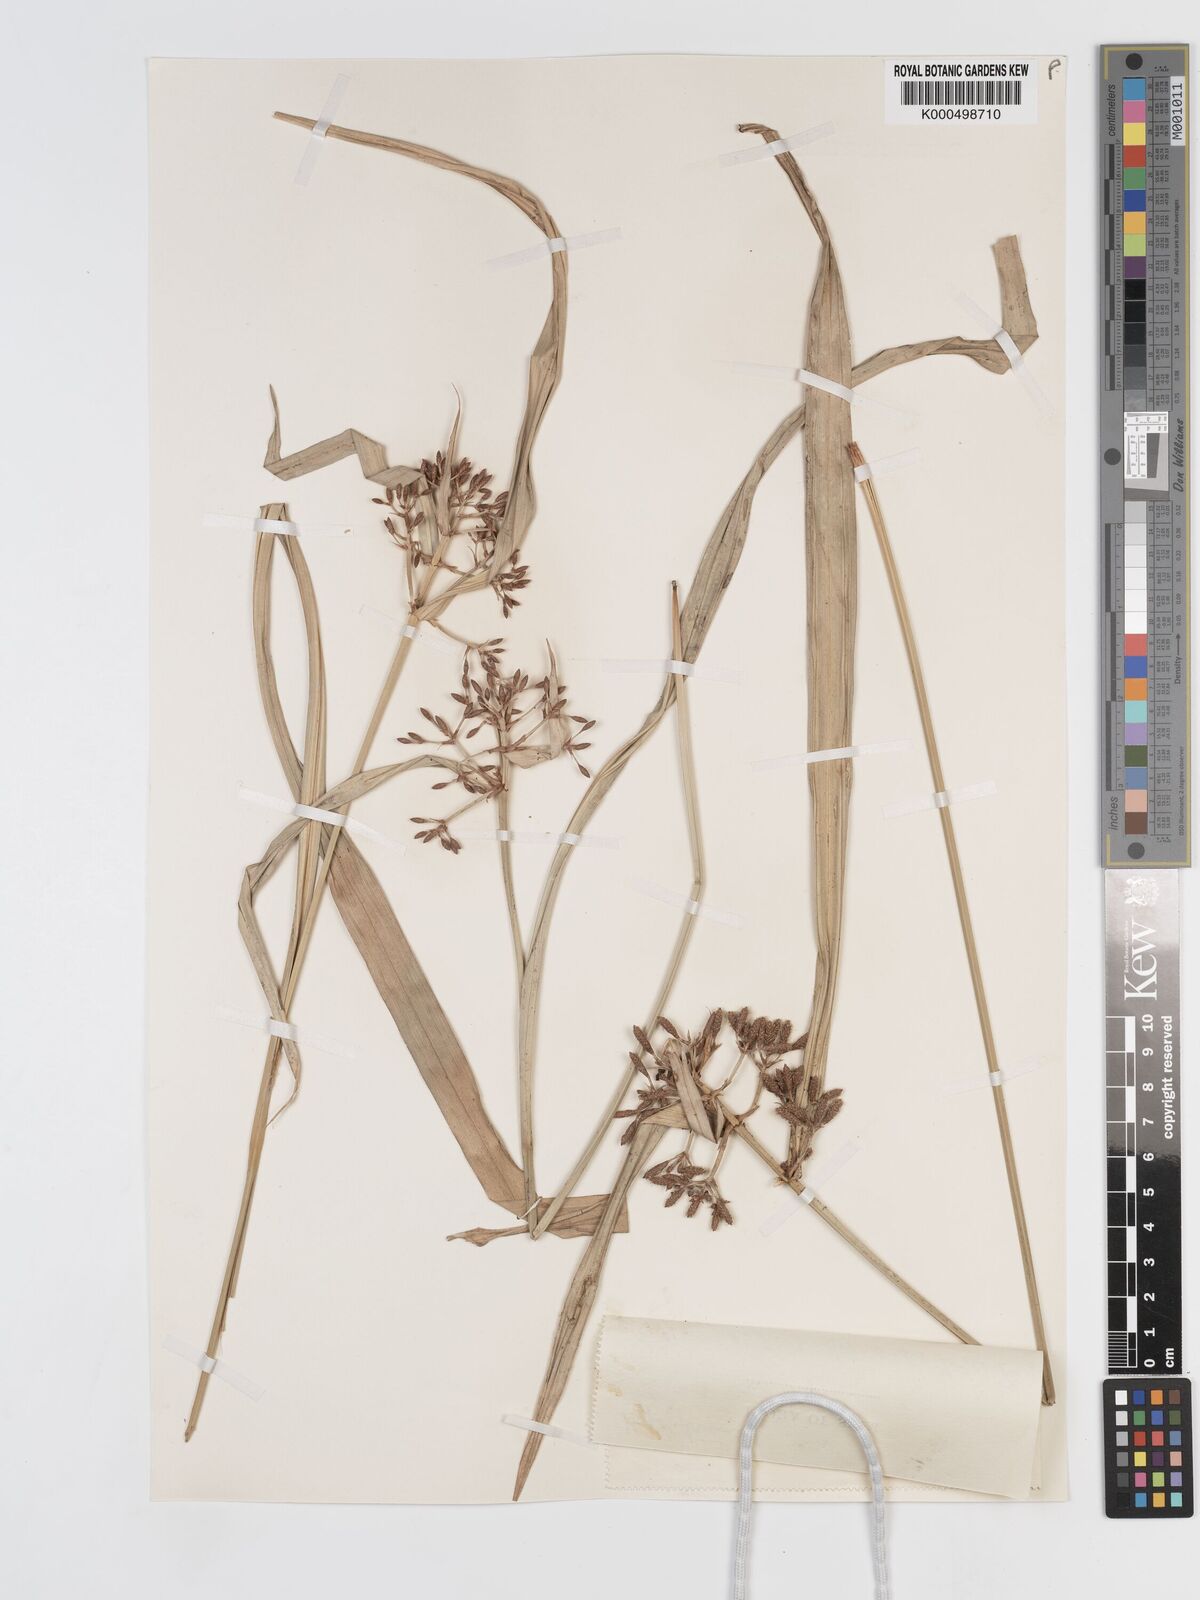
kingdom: Plantae
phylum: Tracheophyta
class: Liliopsida
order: Poales
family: Cyperaceae
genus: Hypolytrum
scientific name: Hypolytrum nemorum
